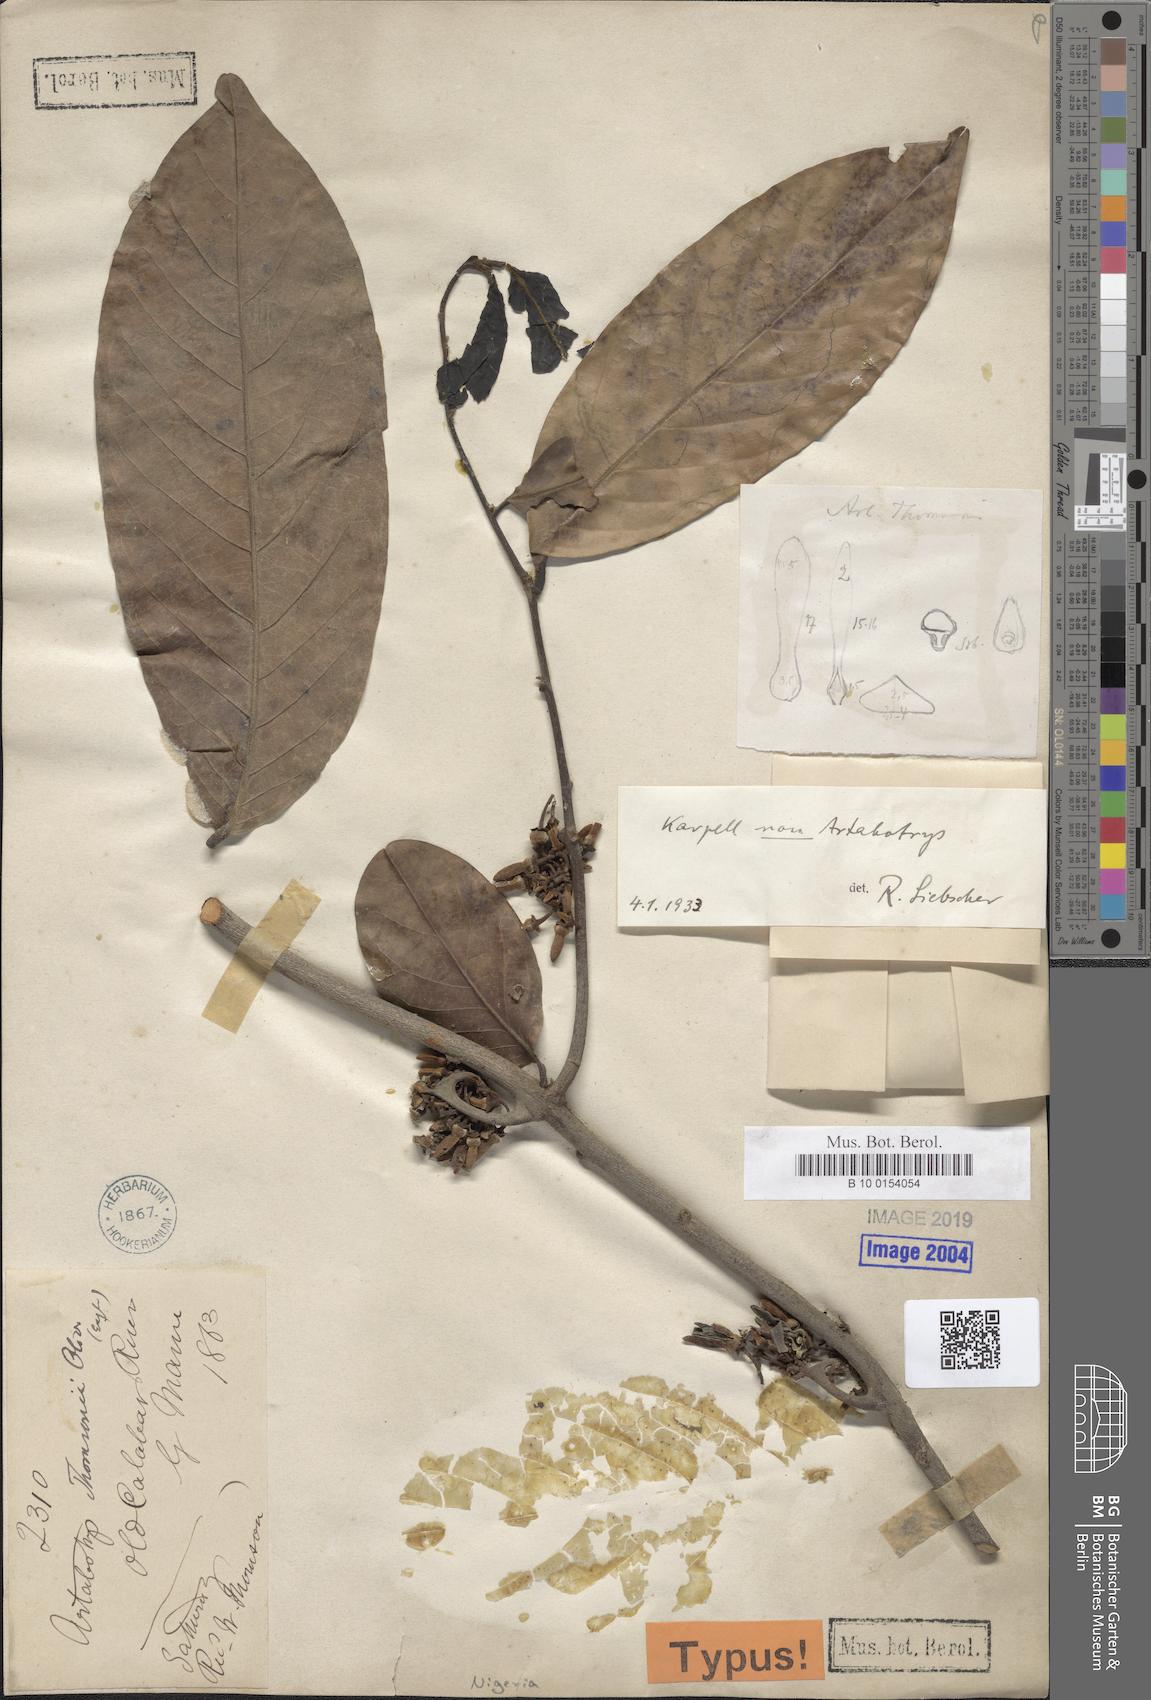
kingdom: Plantae
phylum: Tracheophyta
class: Magnoliopsida
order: Magnoliales
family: Annonaceae
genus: Artabotrys
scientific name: Artabotrys thomsonii
